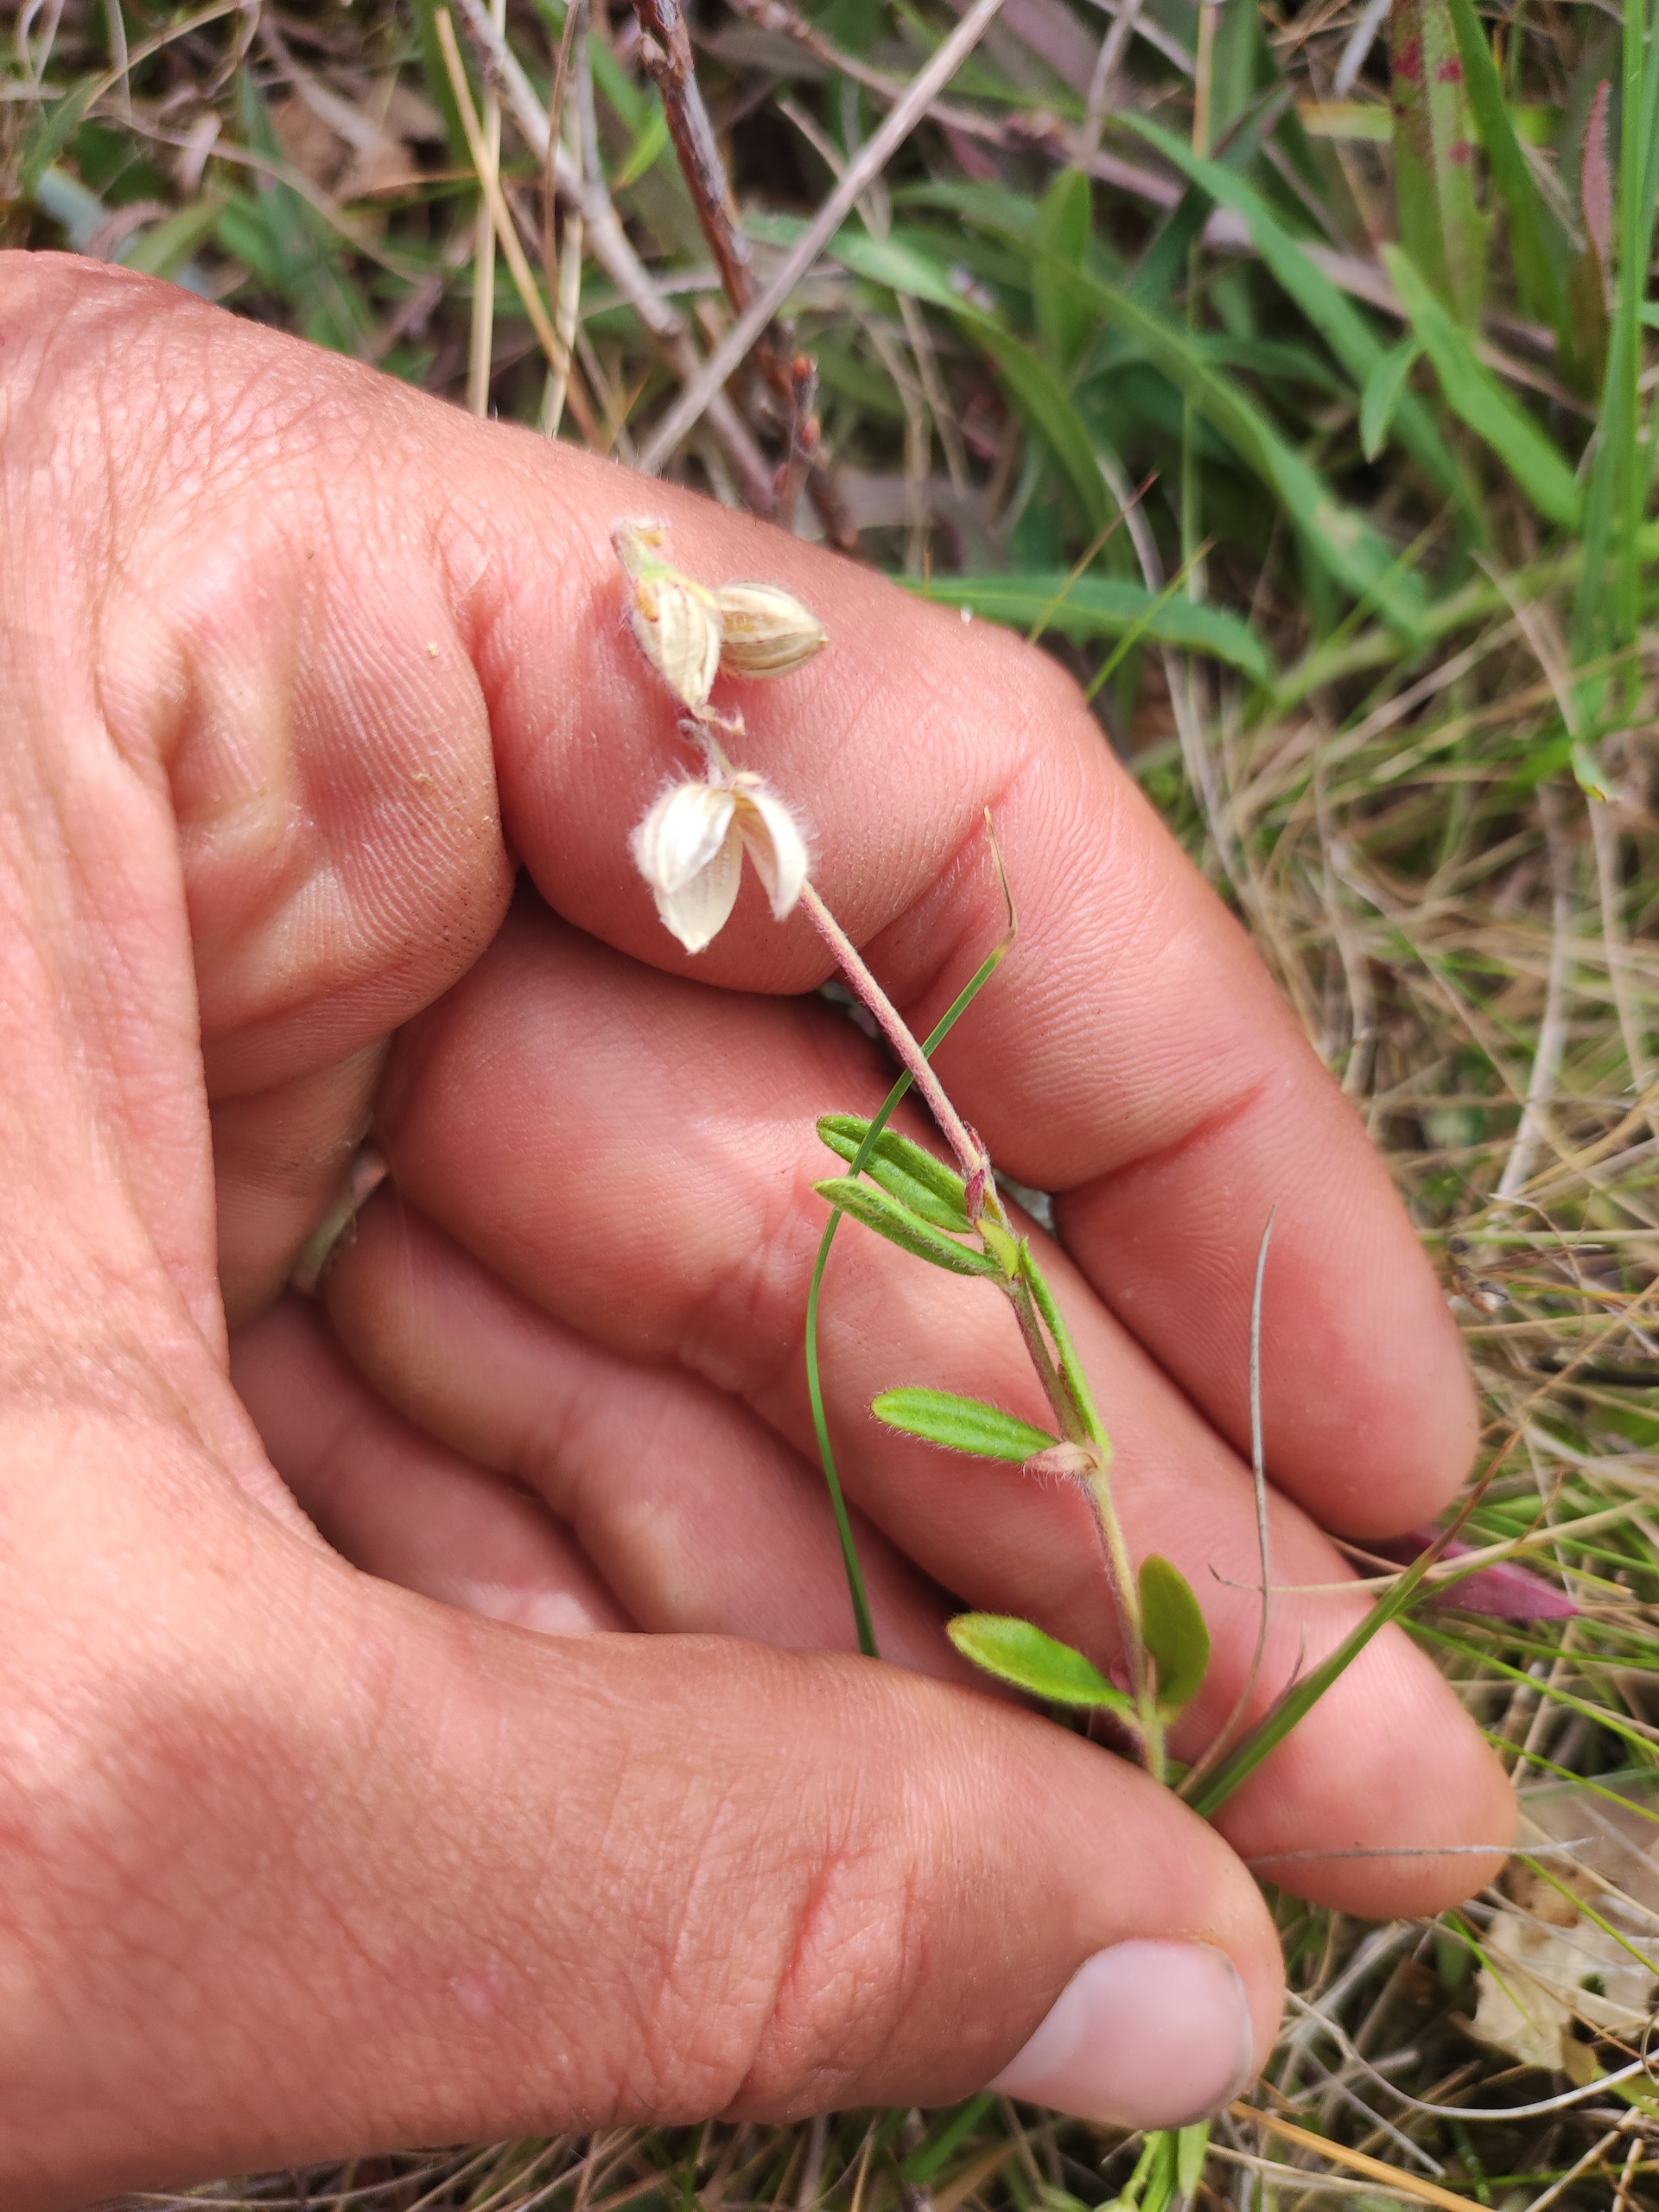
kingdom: Plantae
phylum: Tracheophyta
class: Magnoliopsida
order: Malvales
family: Cistaceae
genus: Helianthemum
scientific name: Helianthemum nummularium
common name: Soløje
